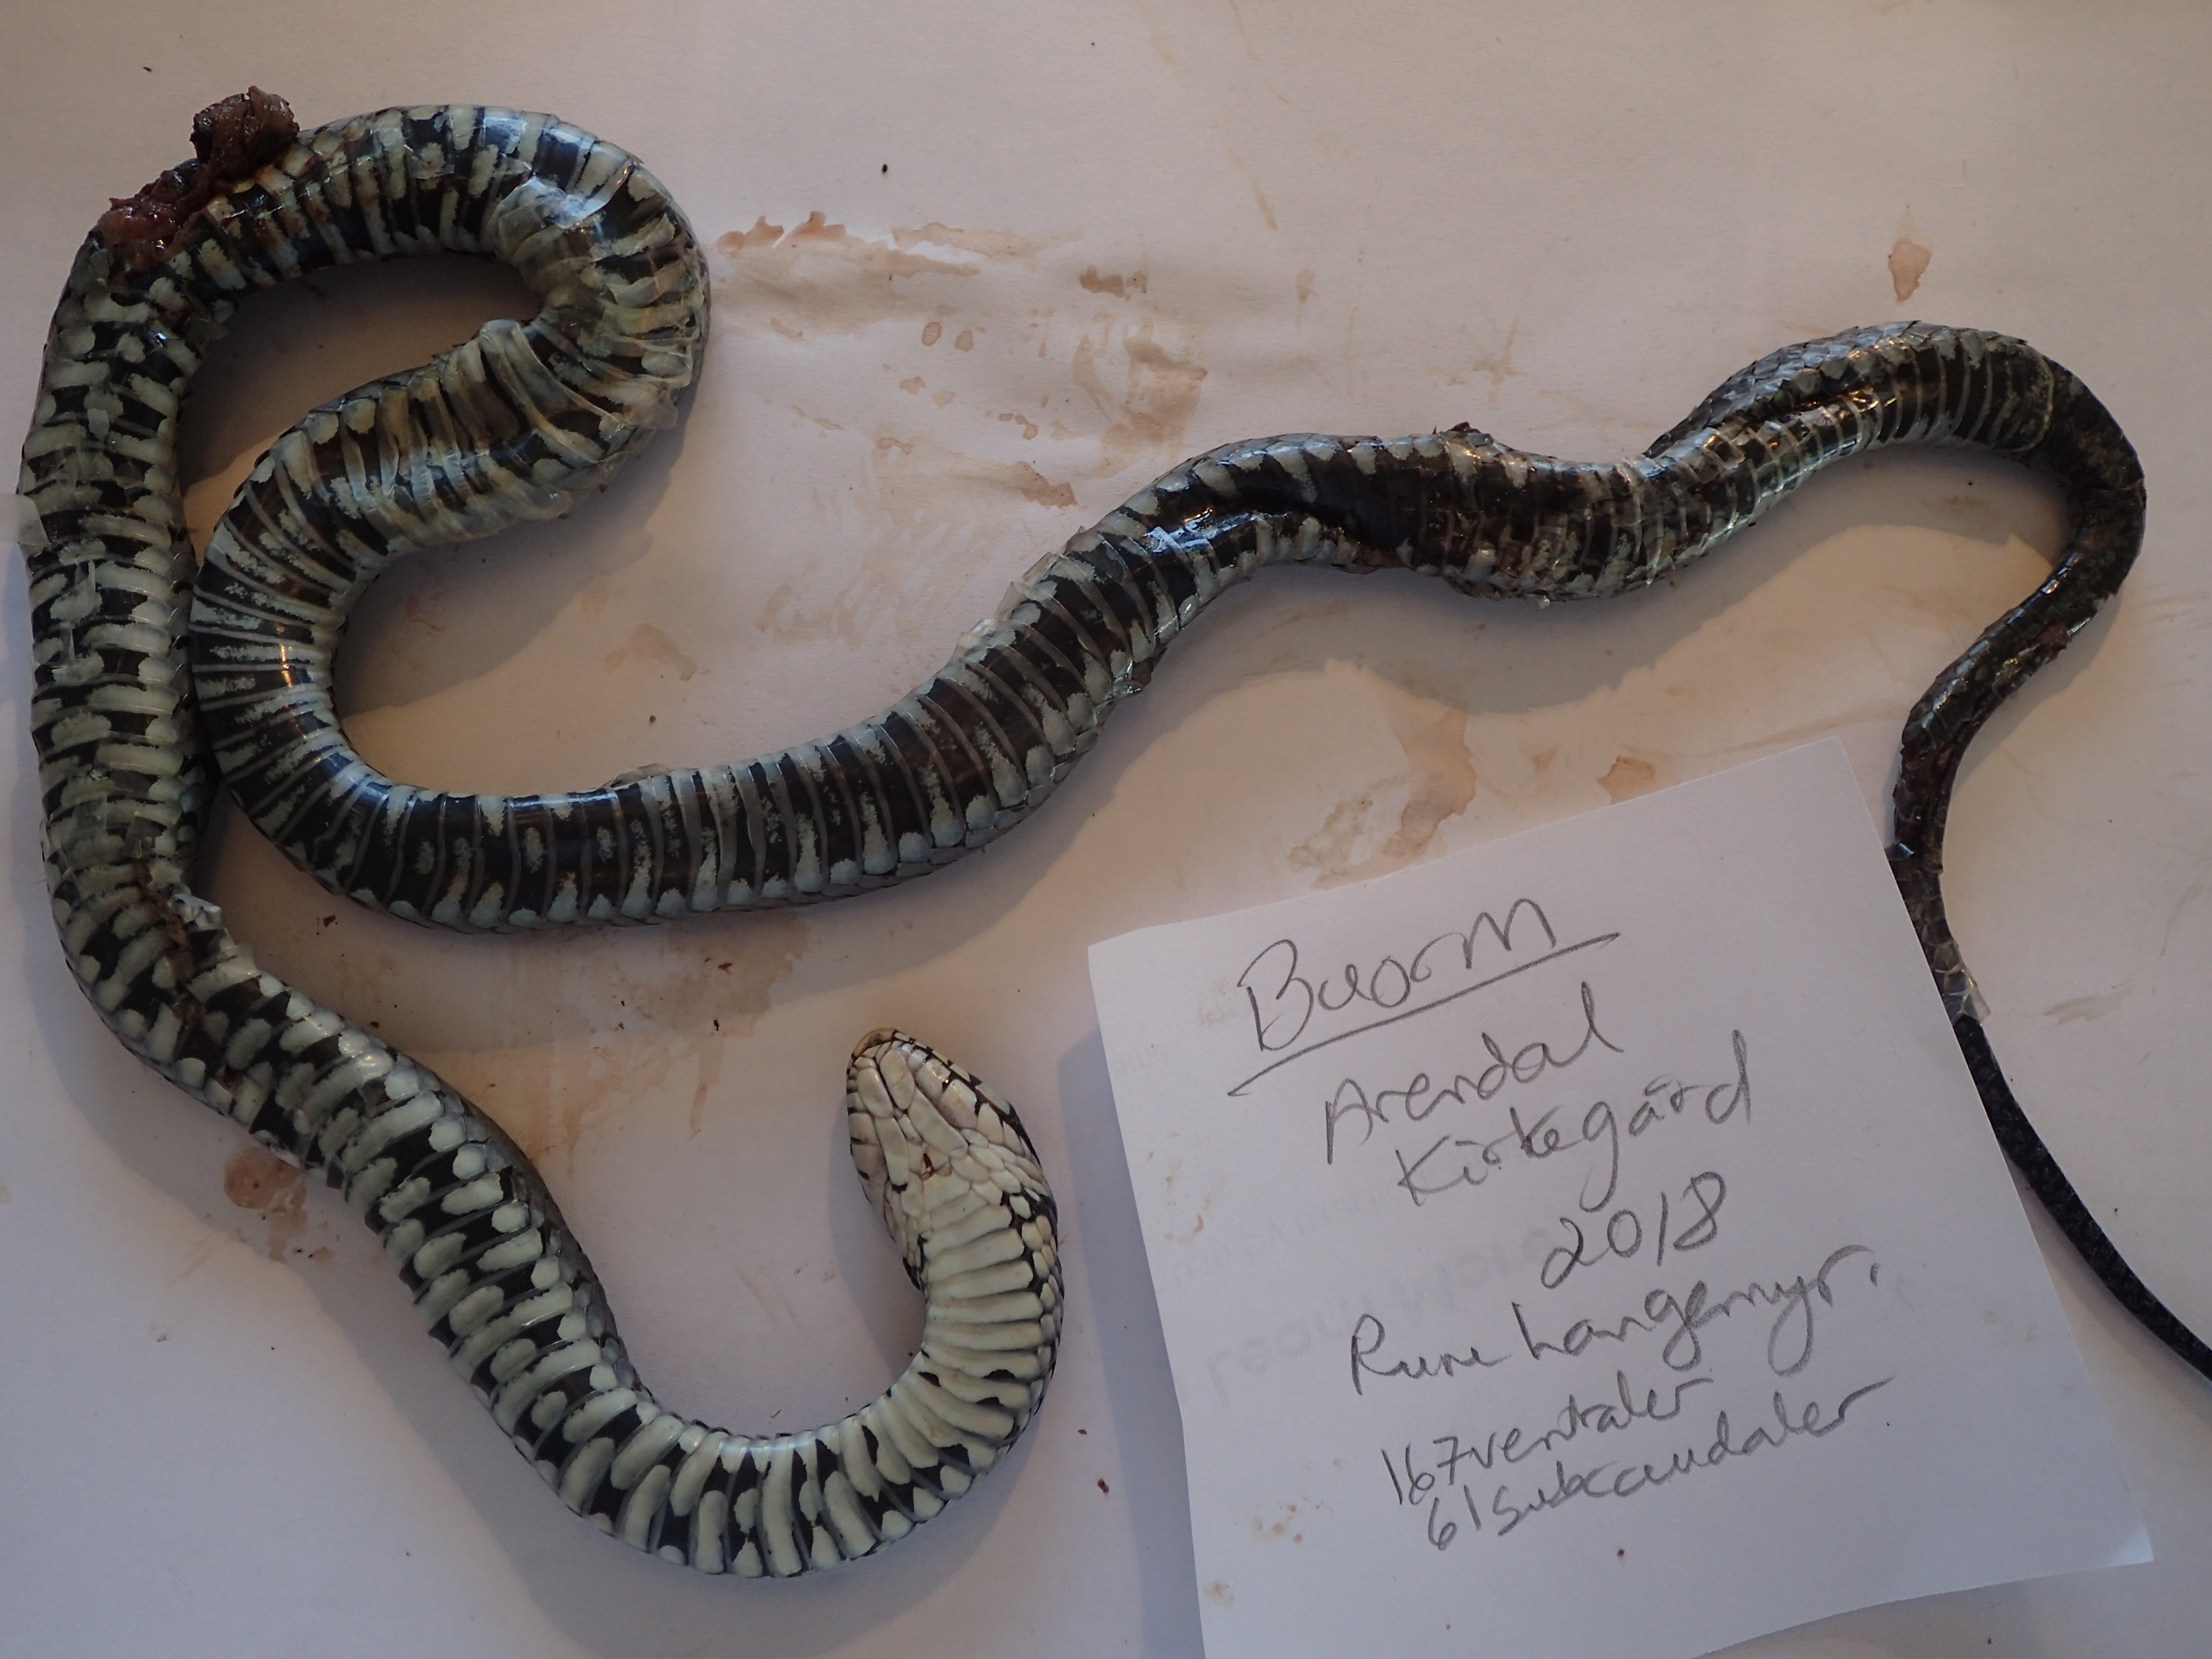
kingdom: Animalia
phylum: Chordata
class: Squamata
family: Colubridae
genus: Natrix
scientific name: Natrix natrix
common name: Grass snake
